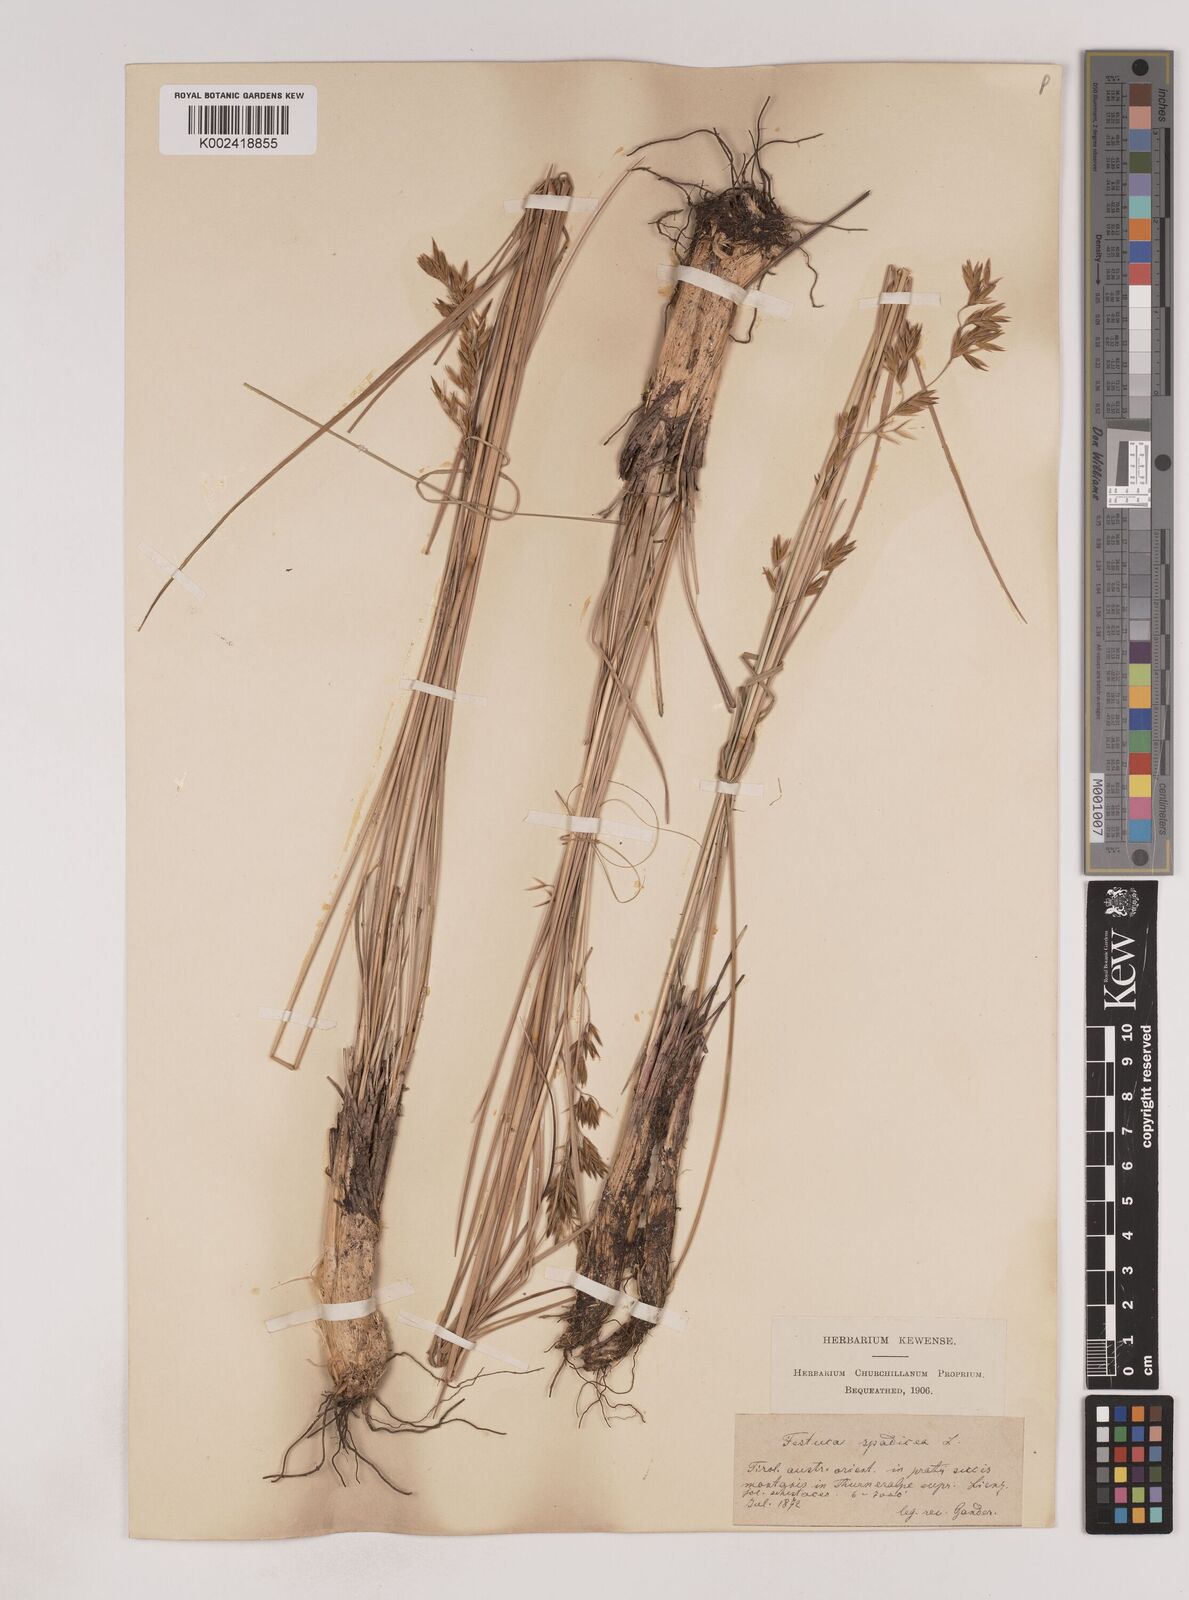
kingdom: Plantae
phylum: Tracheophyta
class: Liliopsida
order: Poales
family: Poaceae
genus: Patzkea
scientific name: Patzkea paniculata
